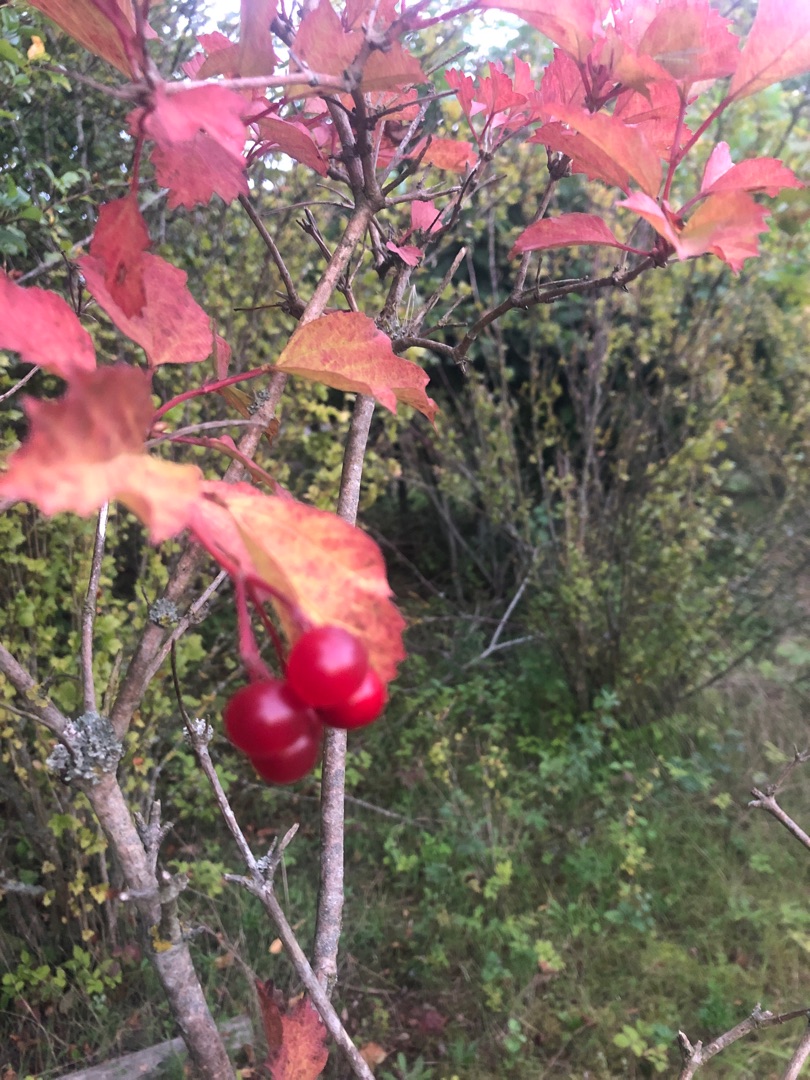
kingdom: Plantae
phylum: Tracheophyta
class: Magnoliopsida
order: Dipsacales
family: Viburnaceae
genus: Viburnum
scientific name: Viburnum opulus
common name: Kvalkved
